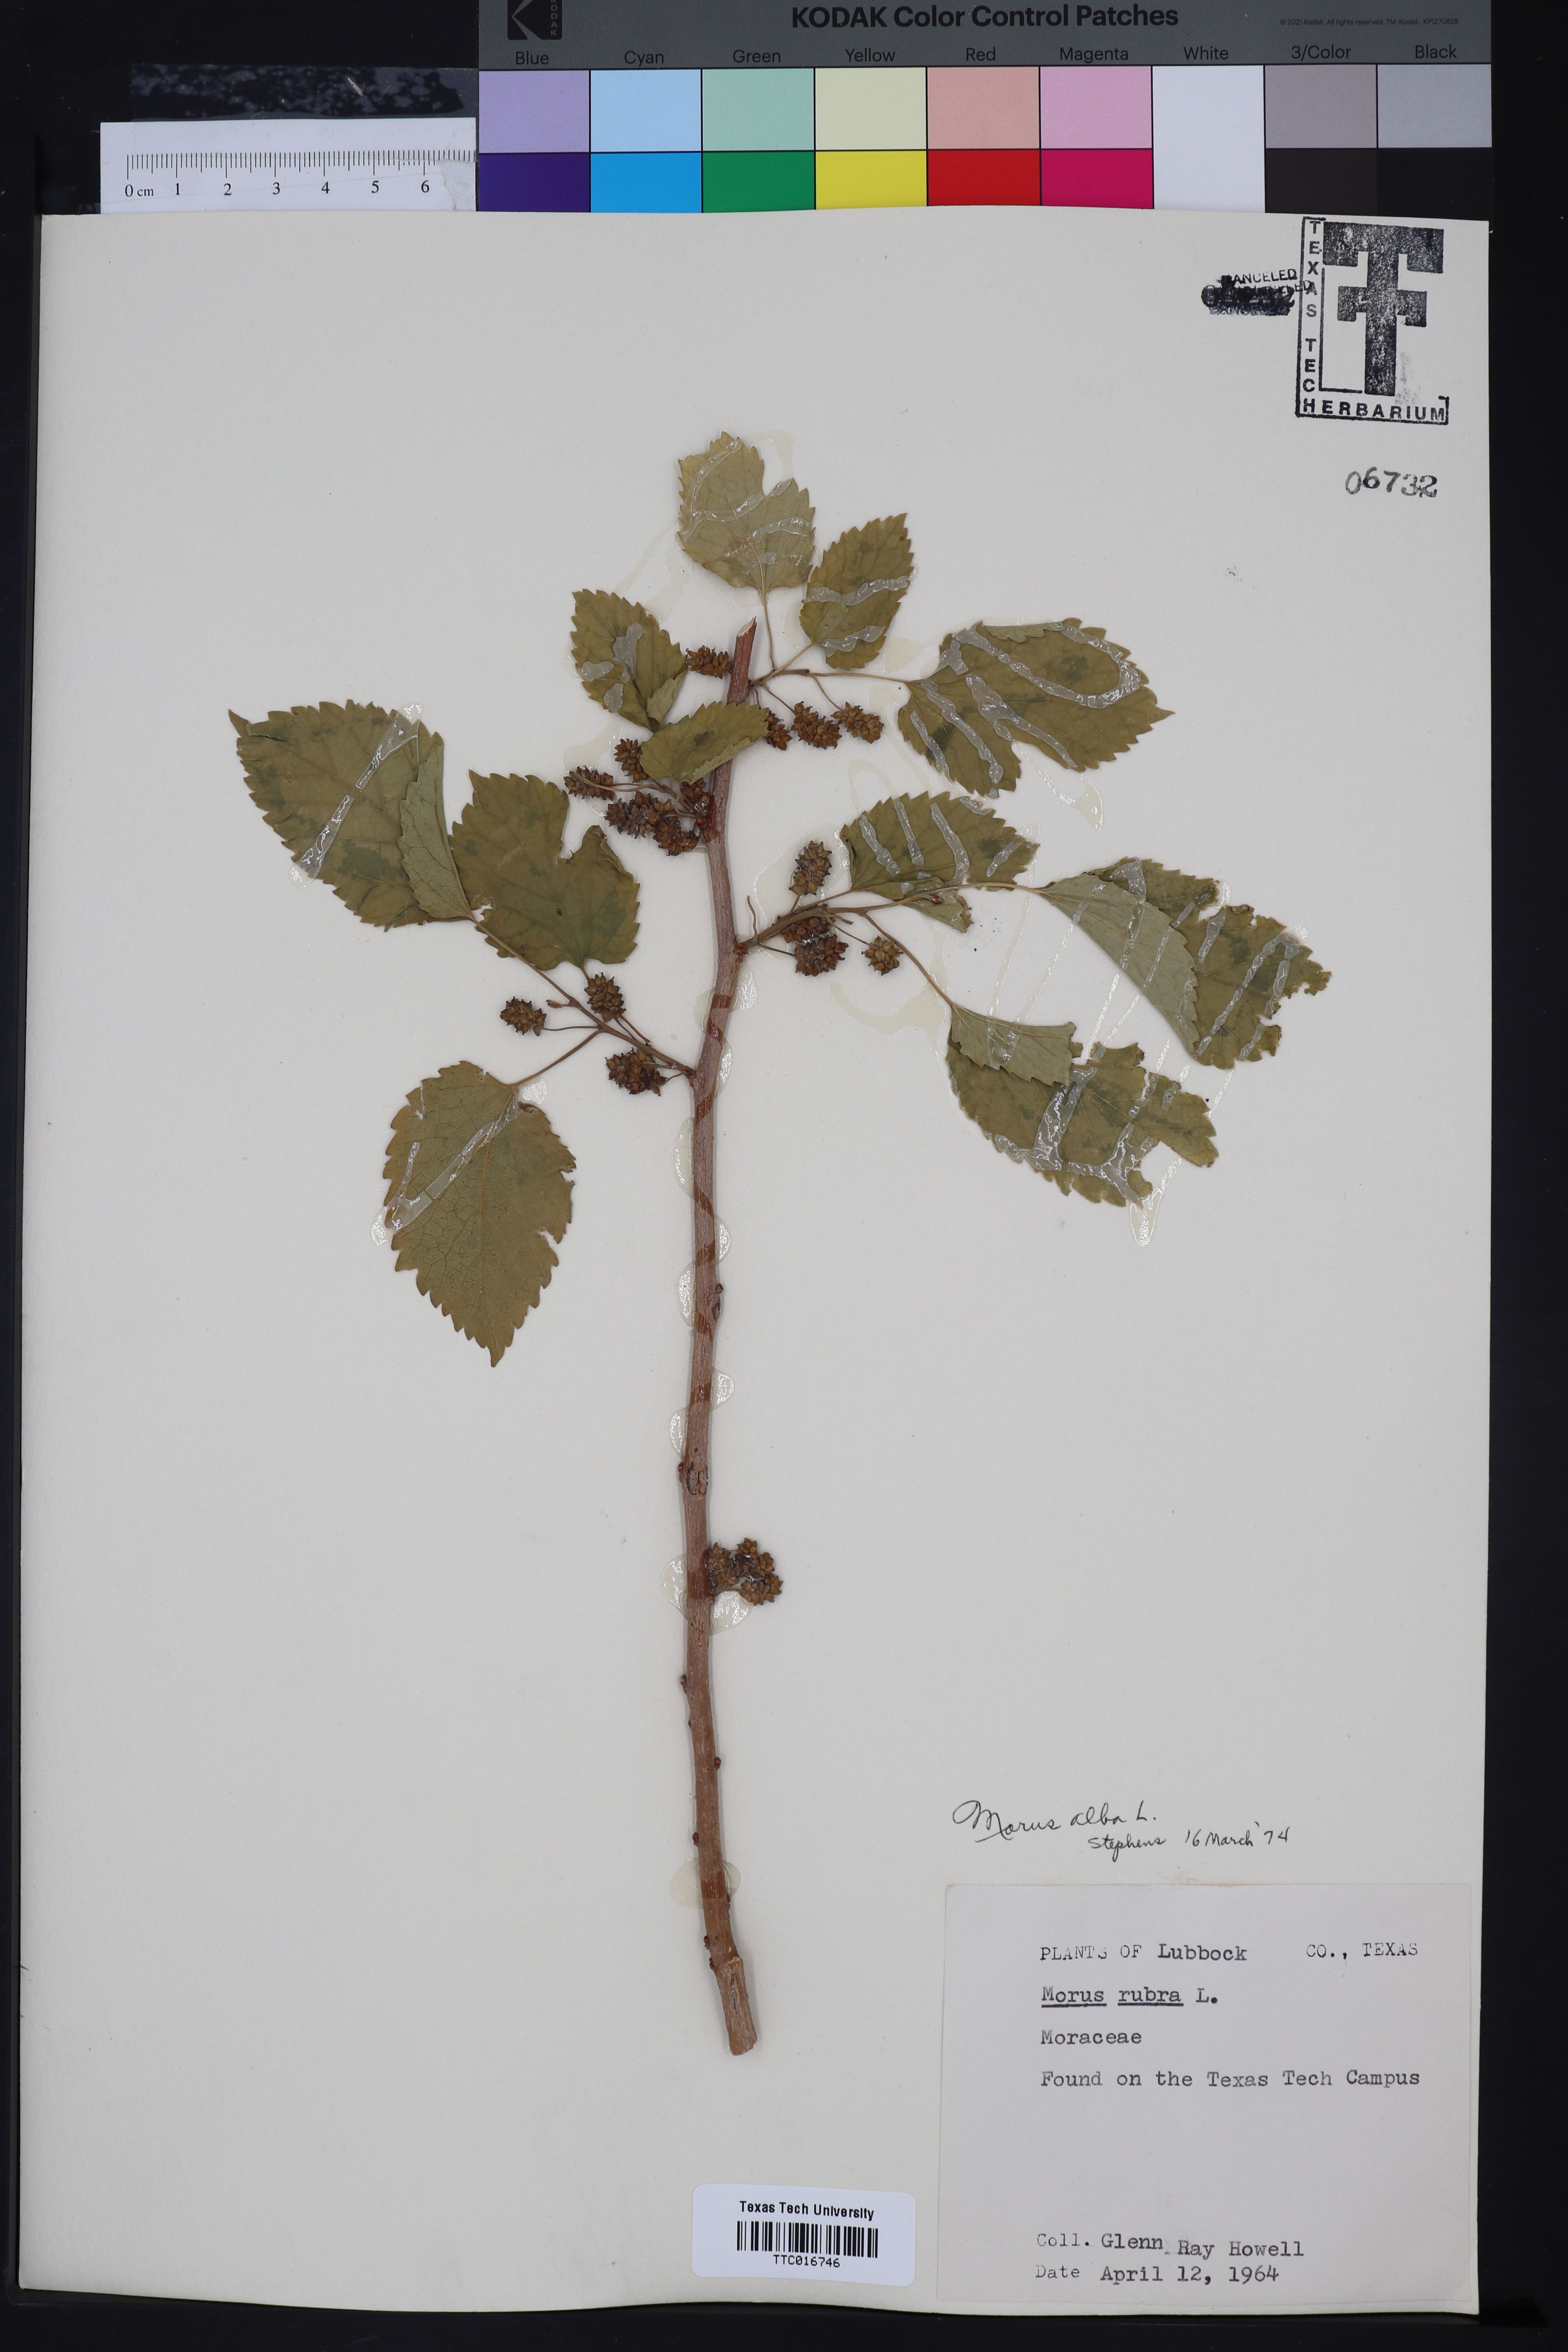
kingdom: Plantae
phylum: Tracheophyta
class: Magnoliopsida
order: Rosales
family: Moraceae
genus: Morus
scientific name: Morus rubra
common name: Red mulberry
